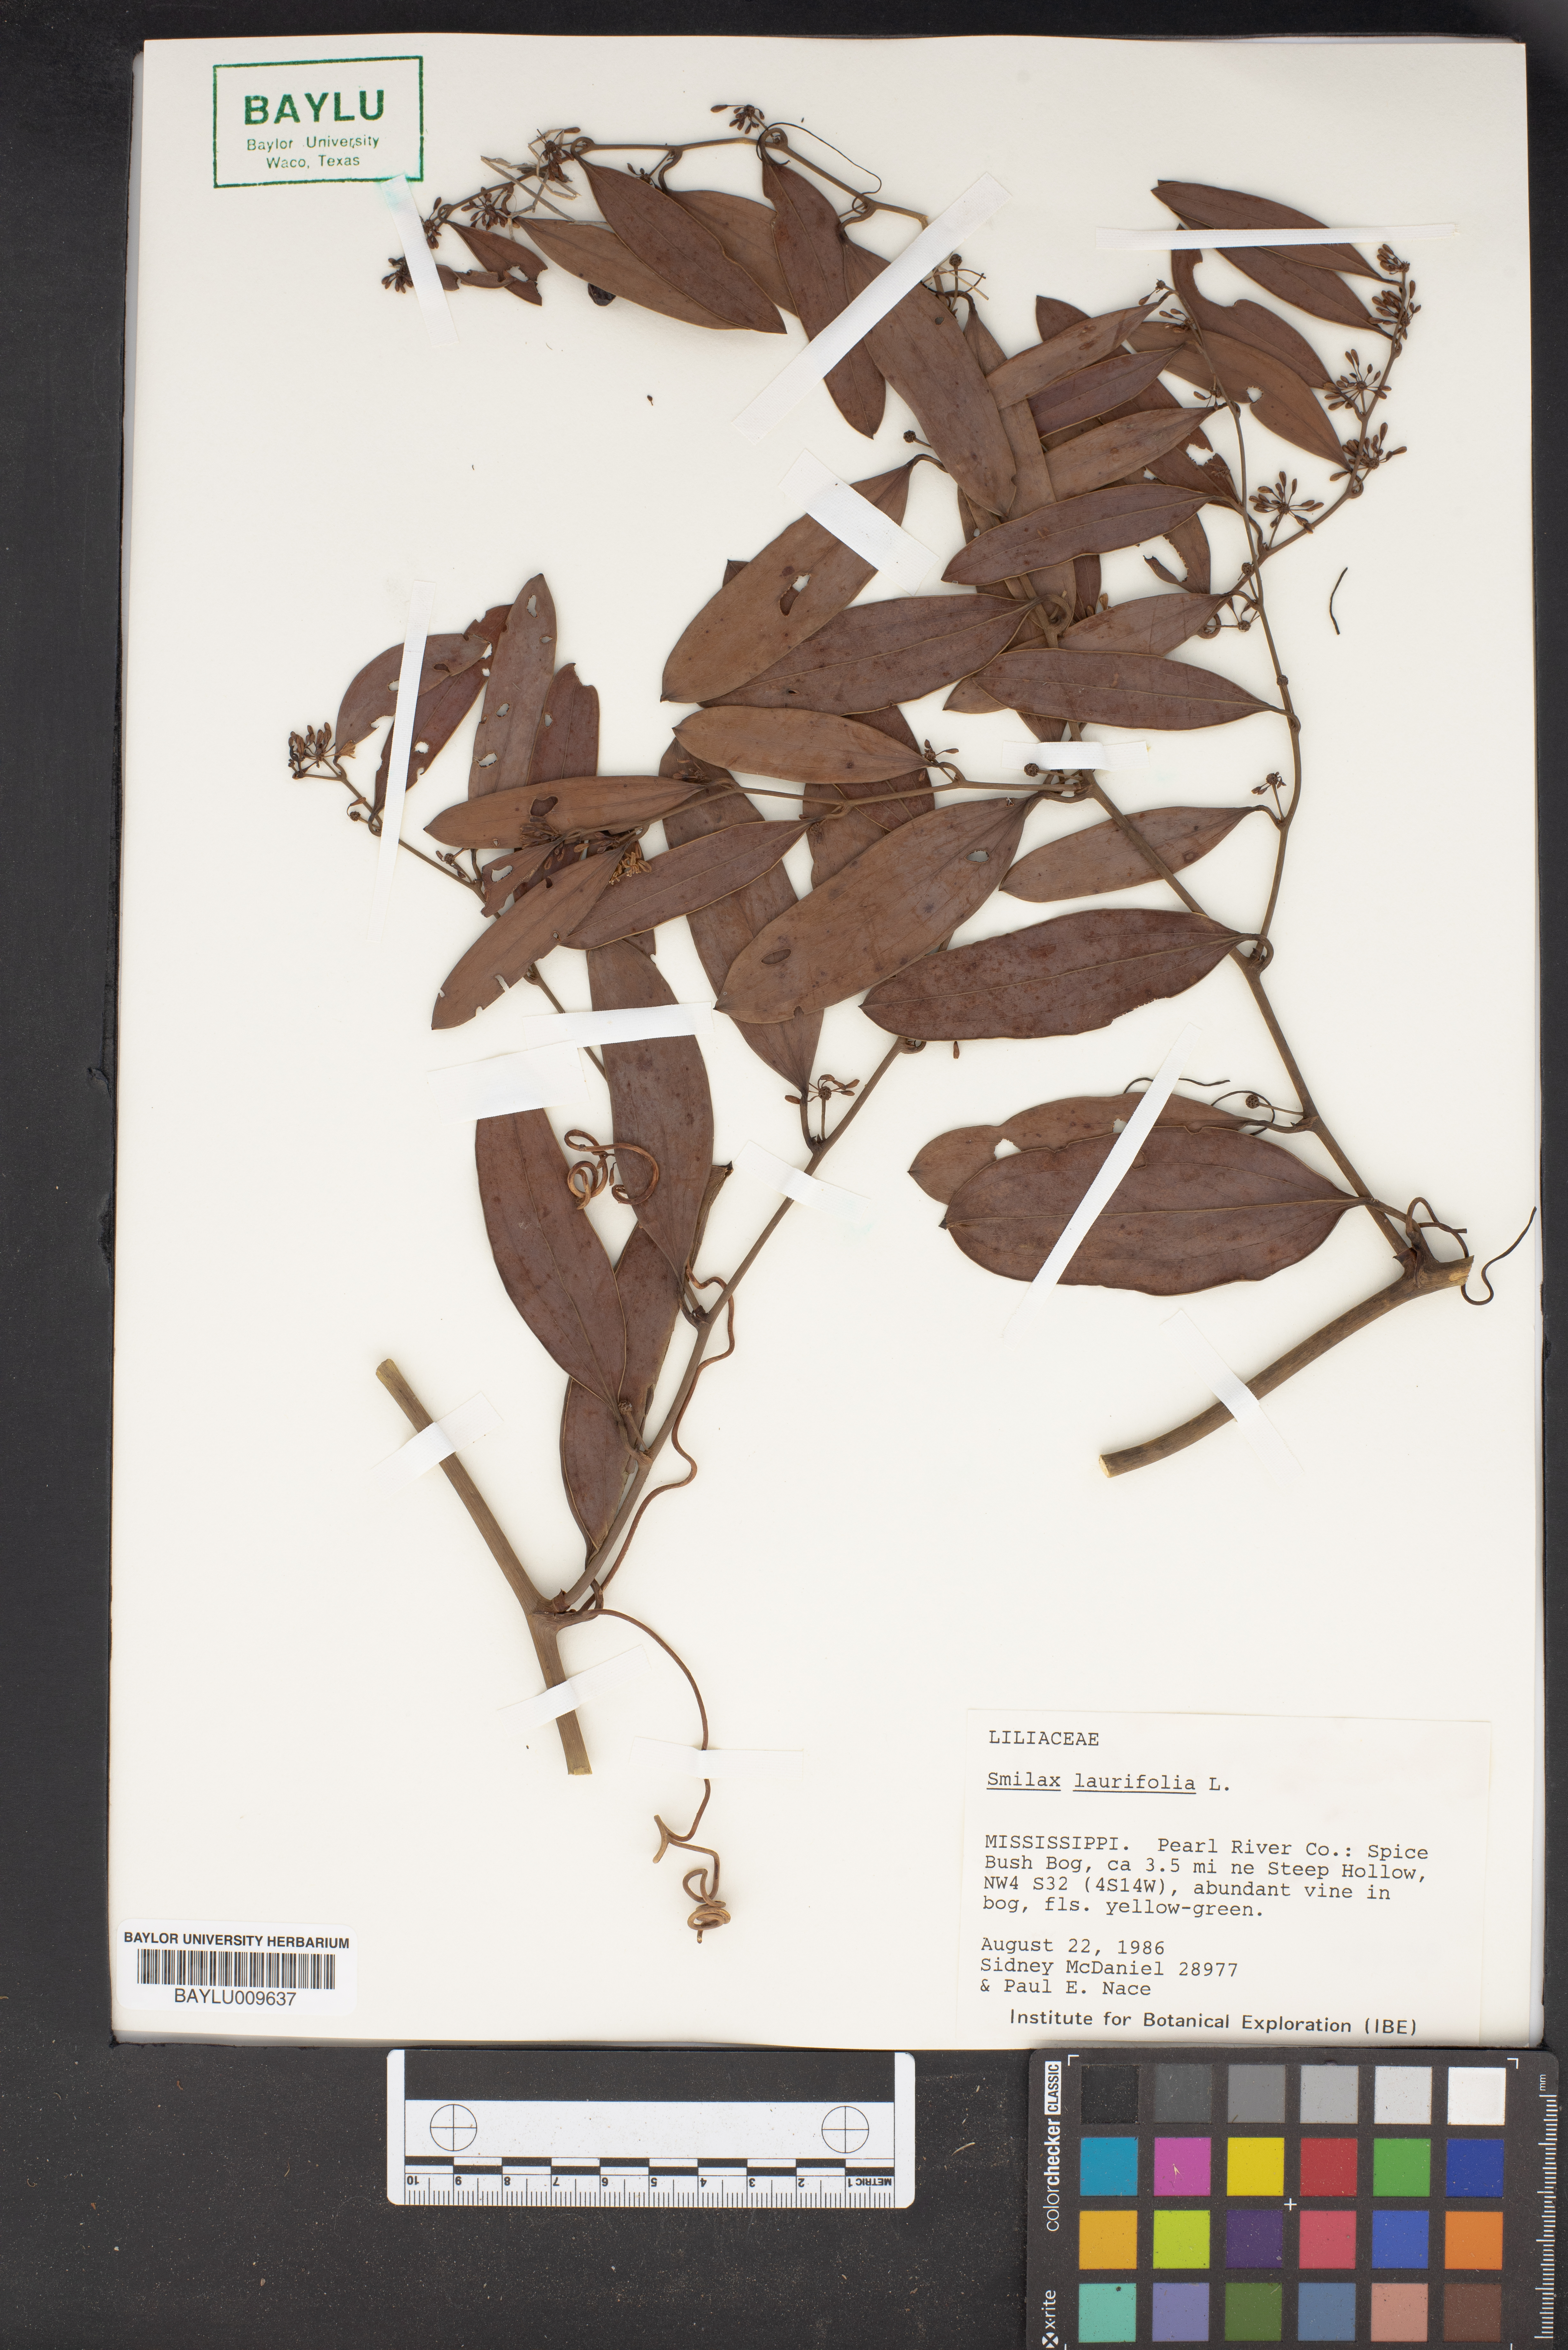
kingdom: Plantae
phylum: Tracheophyta
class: Liliopsida
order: Liliales
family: Smilacaceae
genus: Smilax
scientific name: Smilax laurifolia
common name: Bamboovine
